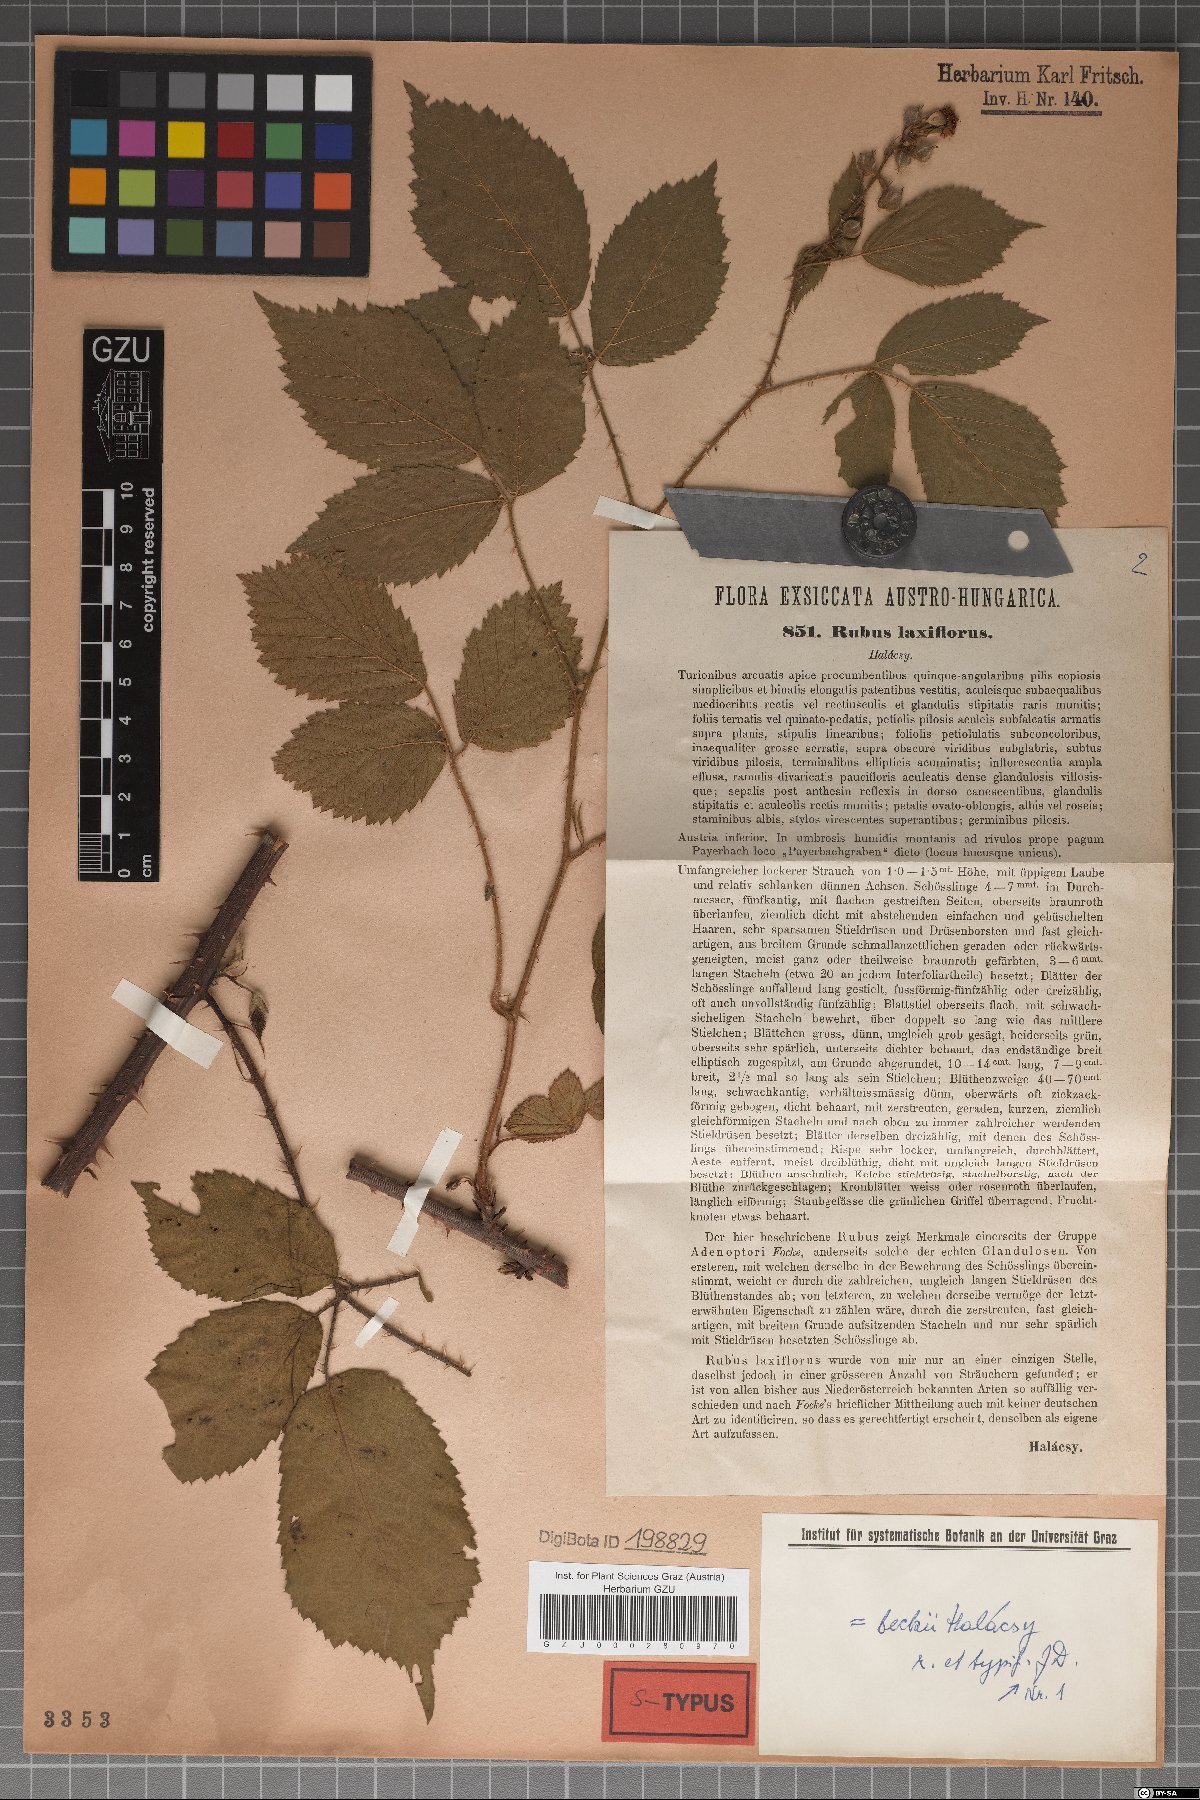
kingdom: Plantae
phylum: Tracheophyta
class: Magnoliopsida
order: Rosales
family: Rosaceae
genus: Rubus
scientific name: Rubus laxiflorus
